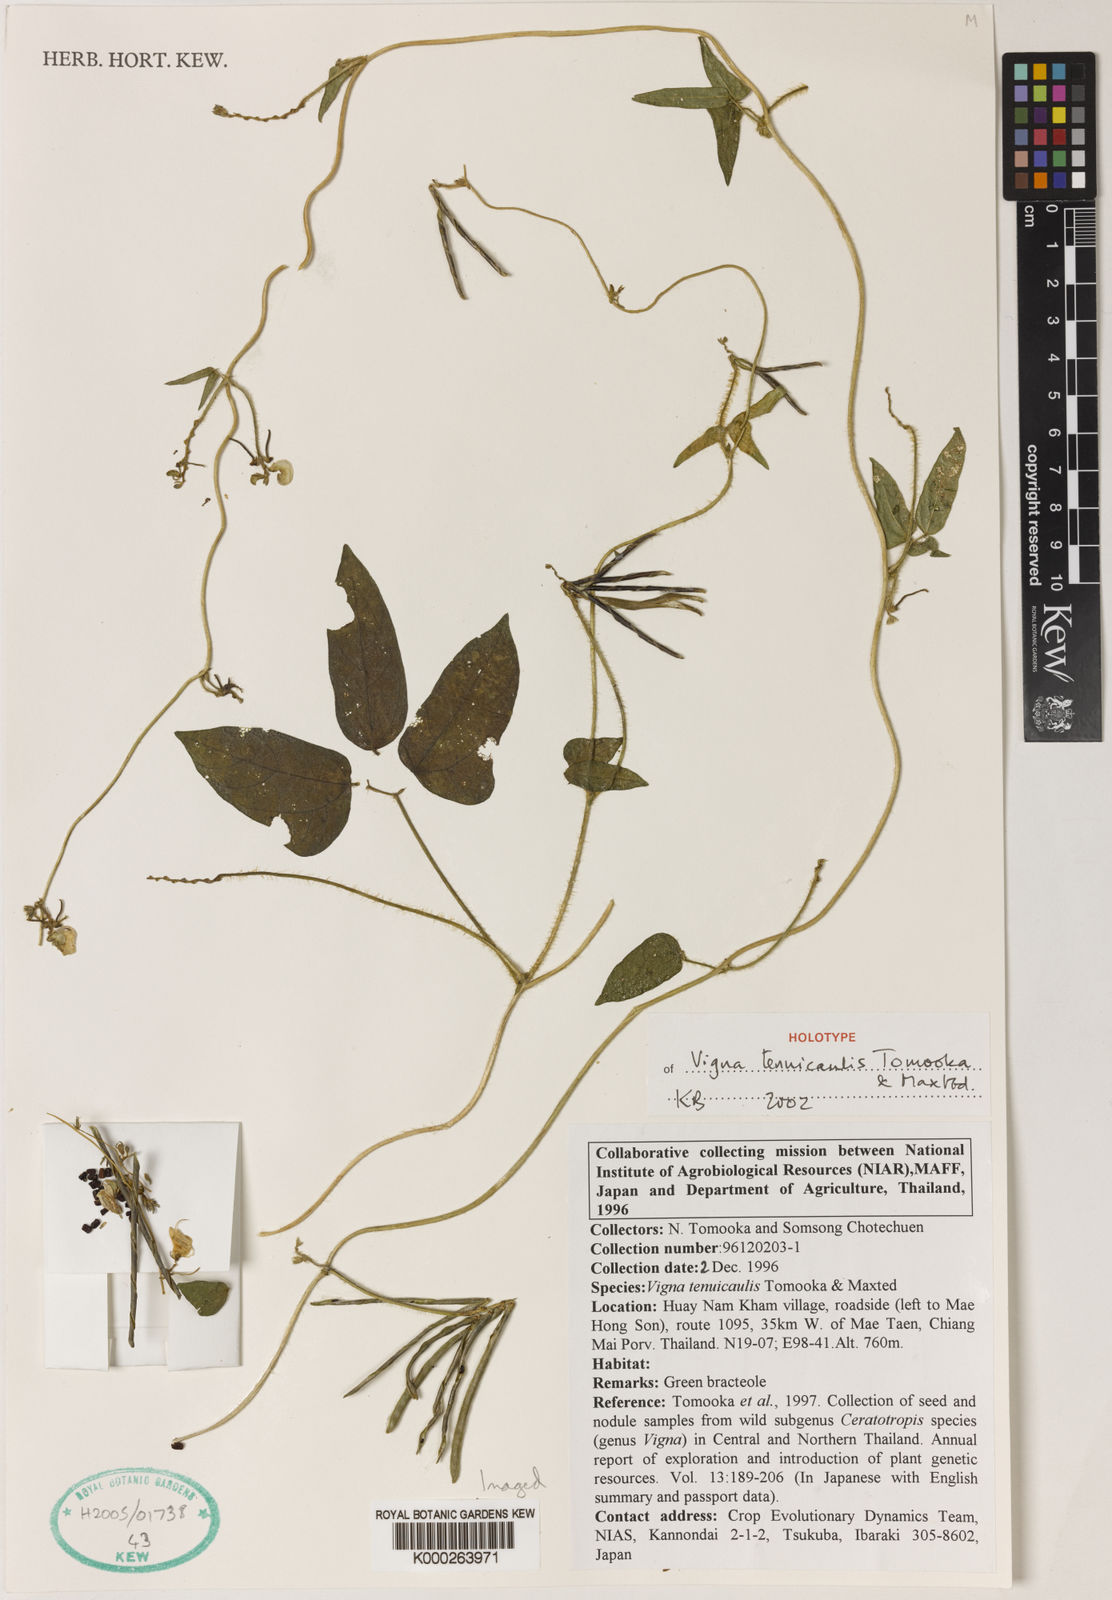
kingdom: Plantae
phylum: Tracheophyta
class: Magnoliopsida
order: Fabales
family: Fabaceae
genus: Vigna
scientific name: Vigna
